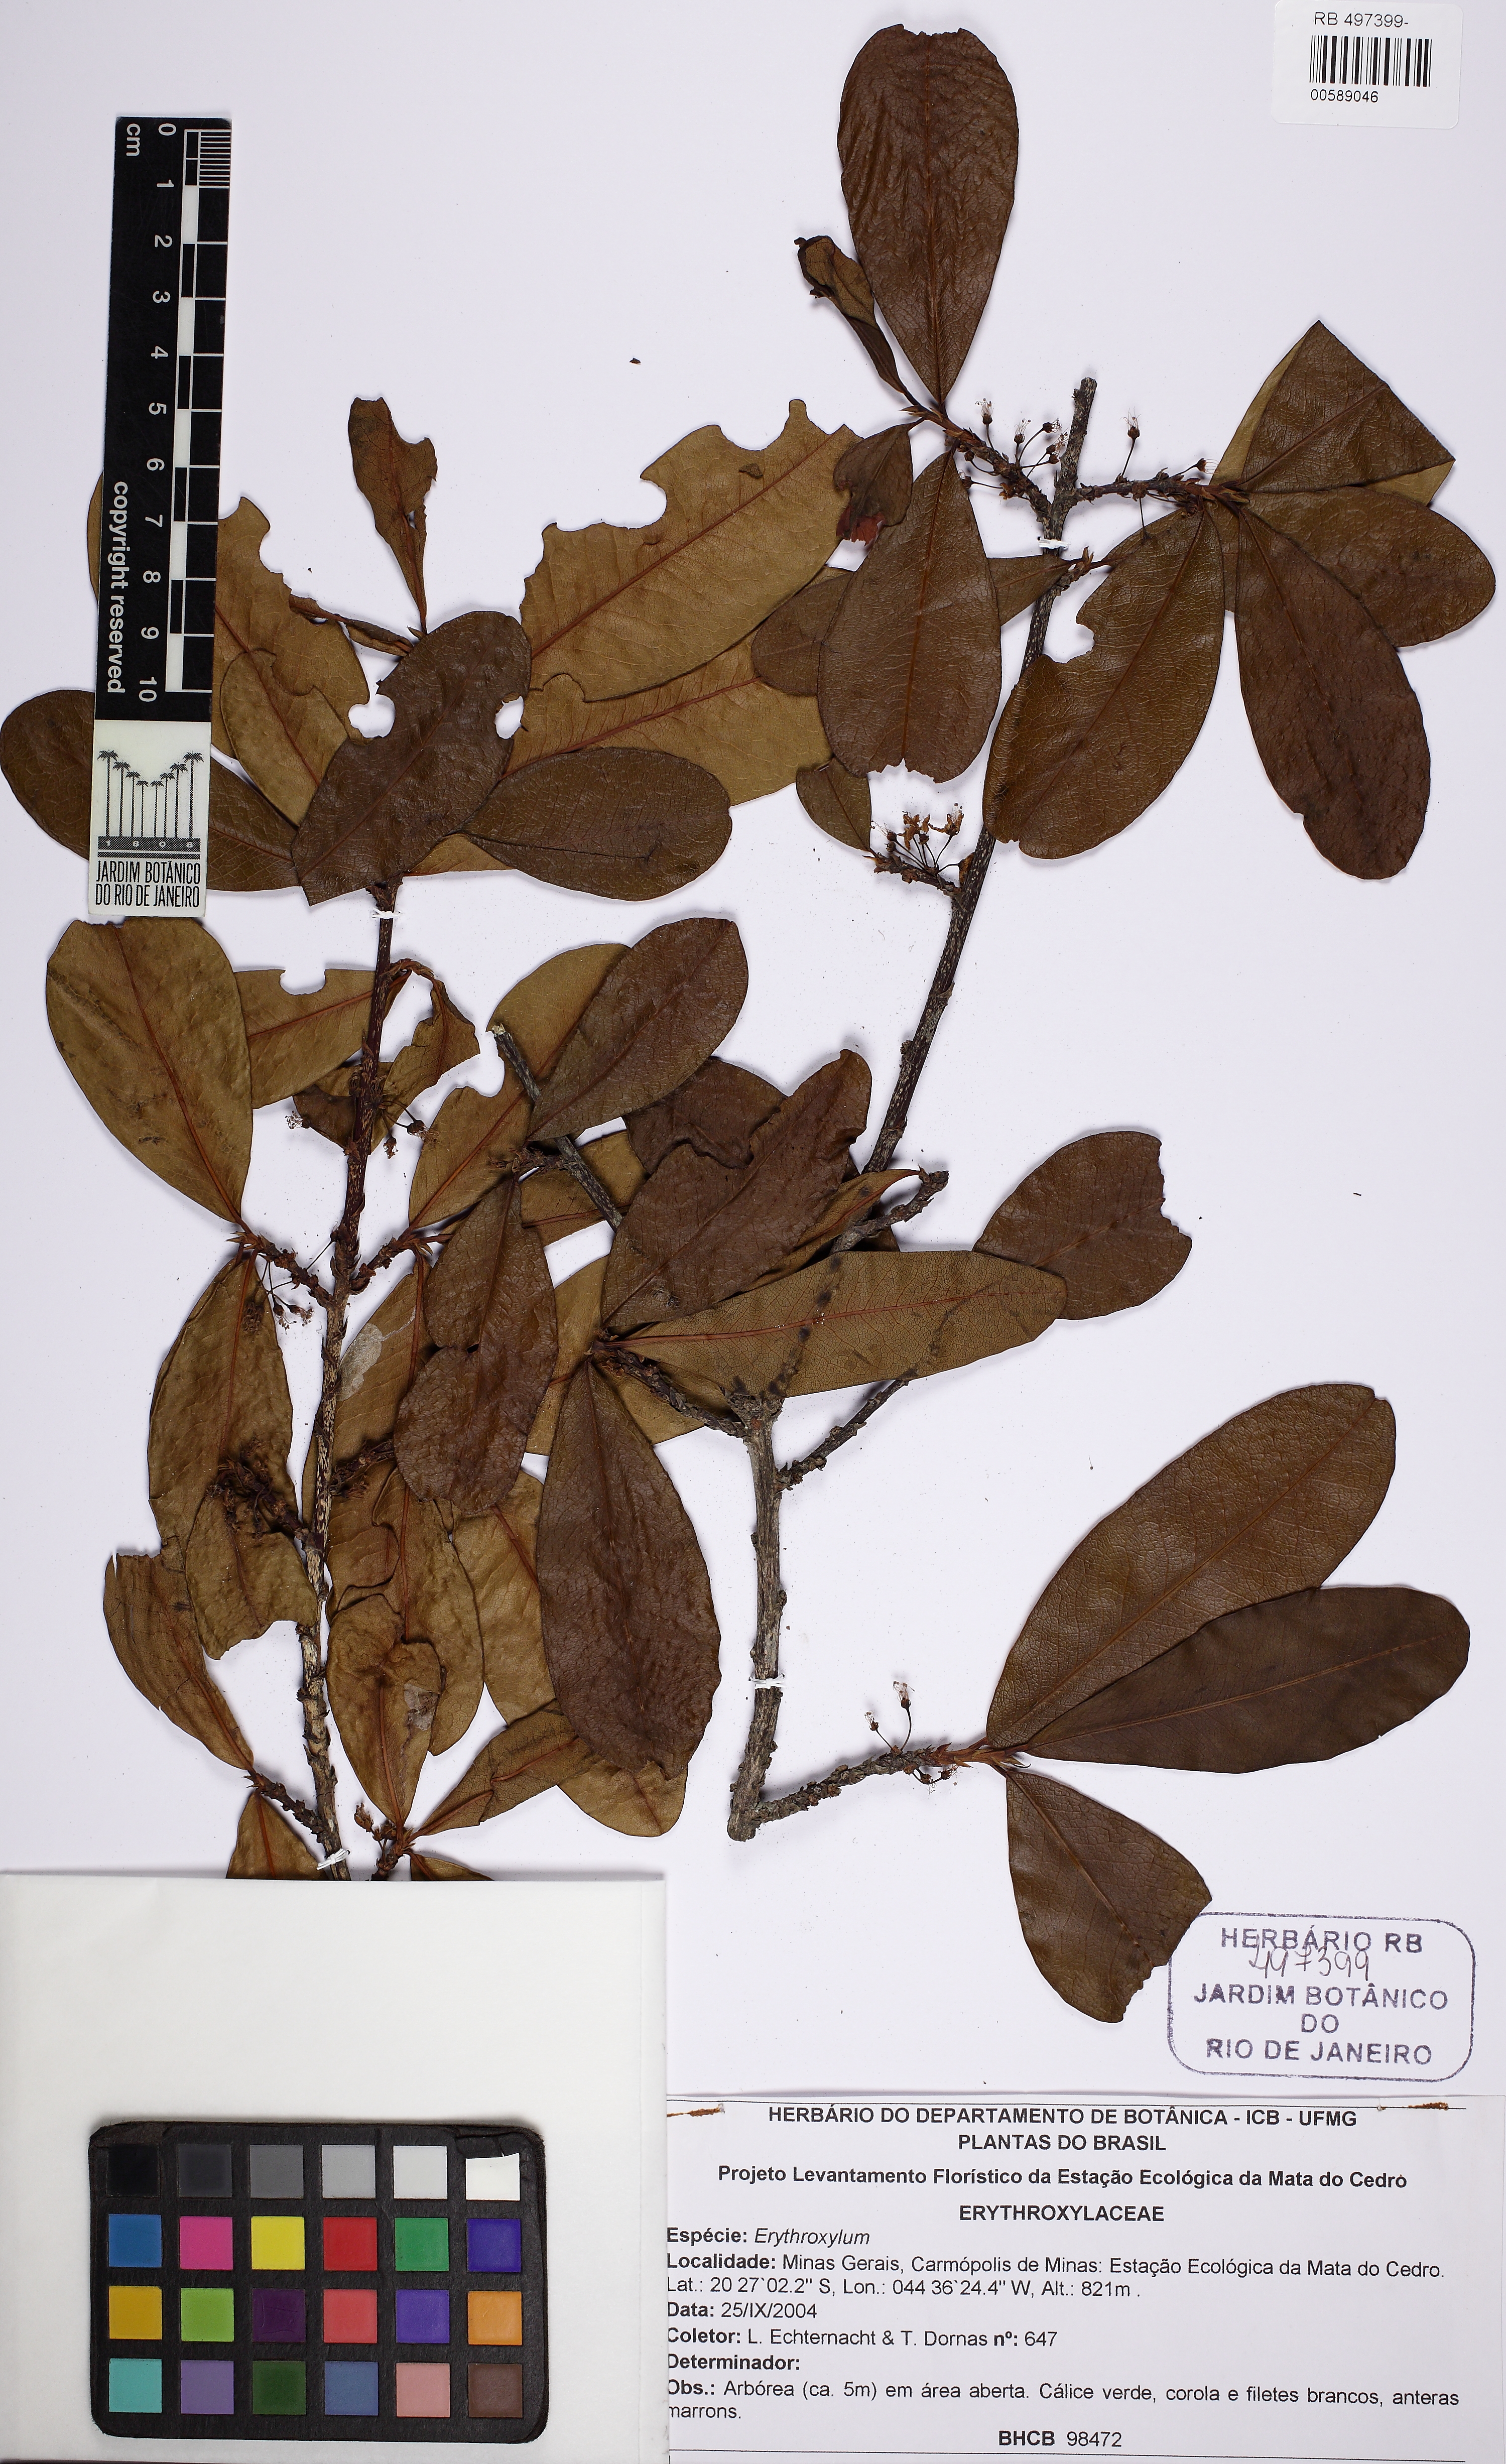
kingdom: Plantae
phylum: Tracheophyta
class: Magnoliopsida
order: Malpighiales
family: Erythroxylaceae
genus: Erythroxylum
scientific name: Erythroxylum deciduum
